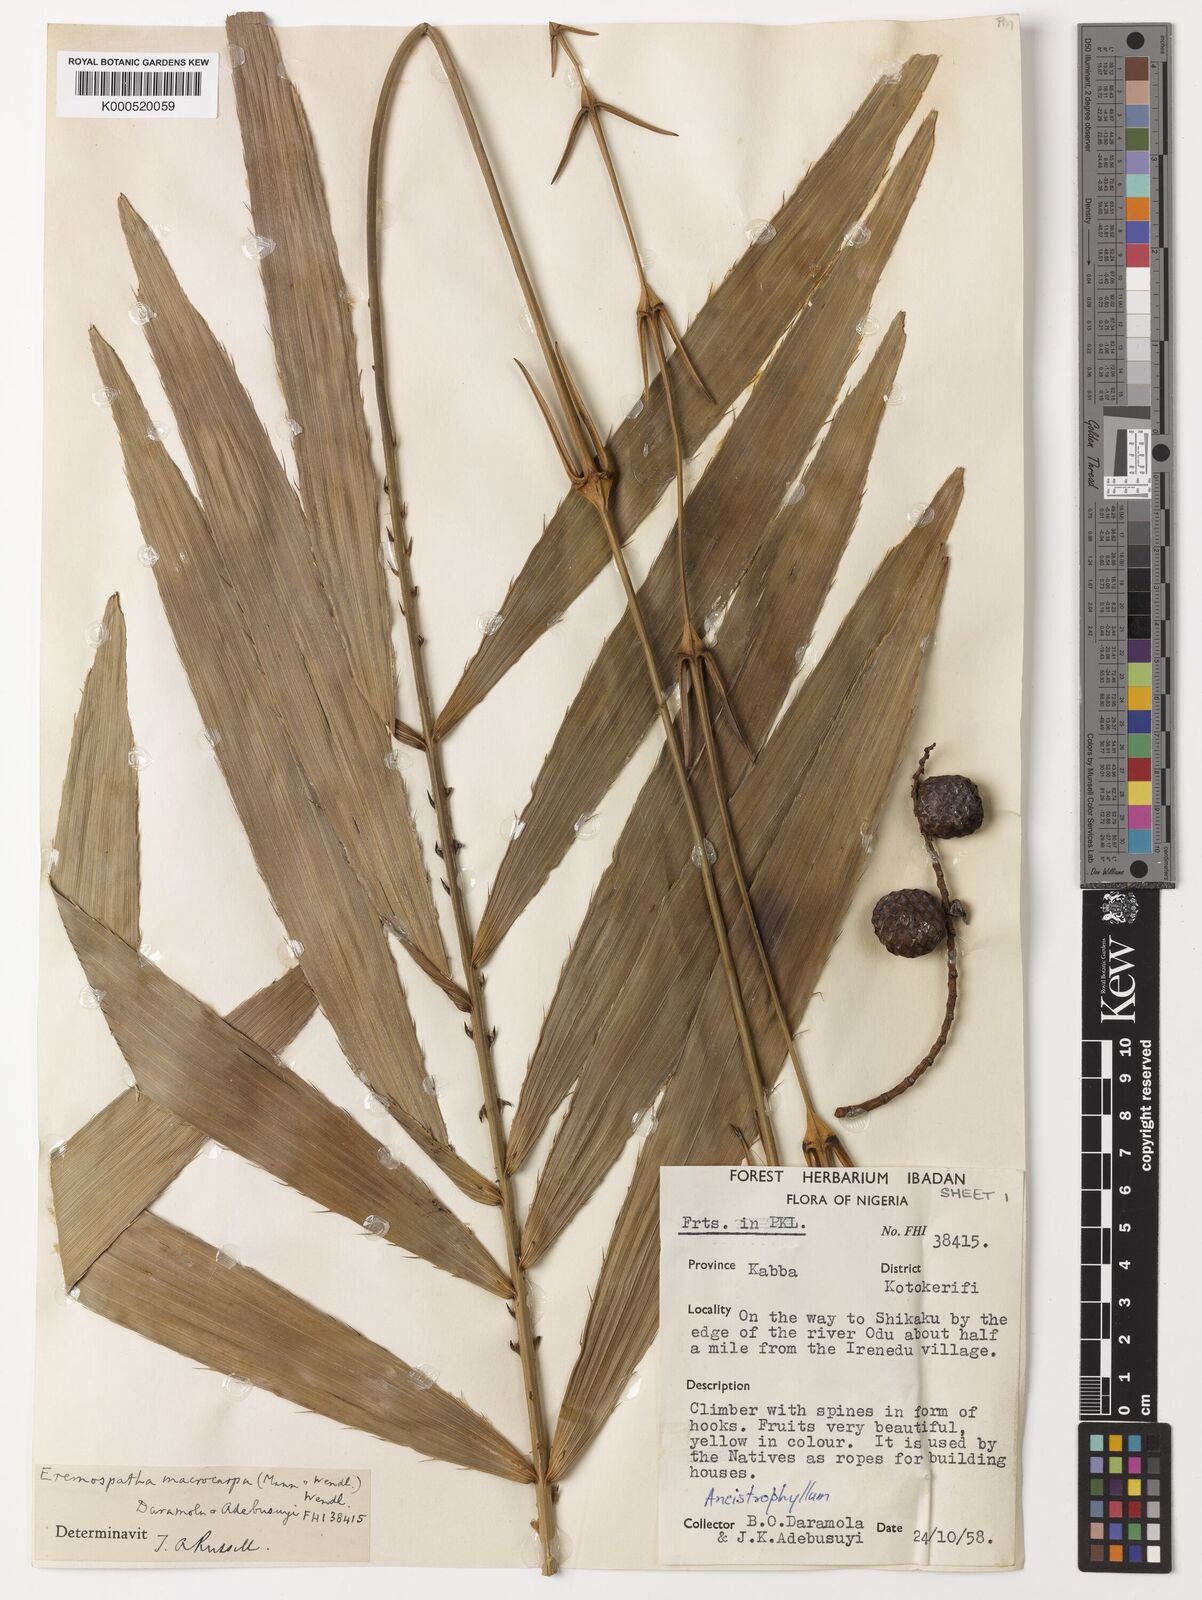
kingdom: Plantae
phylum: Tracheophyta
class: Liliopsida
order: Arecales
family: Arecaceae
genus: Eremospatha
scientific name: Eremospatha
